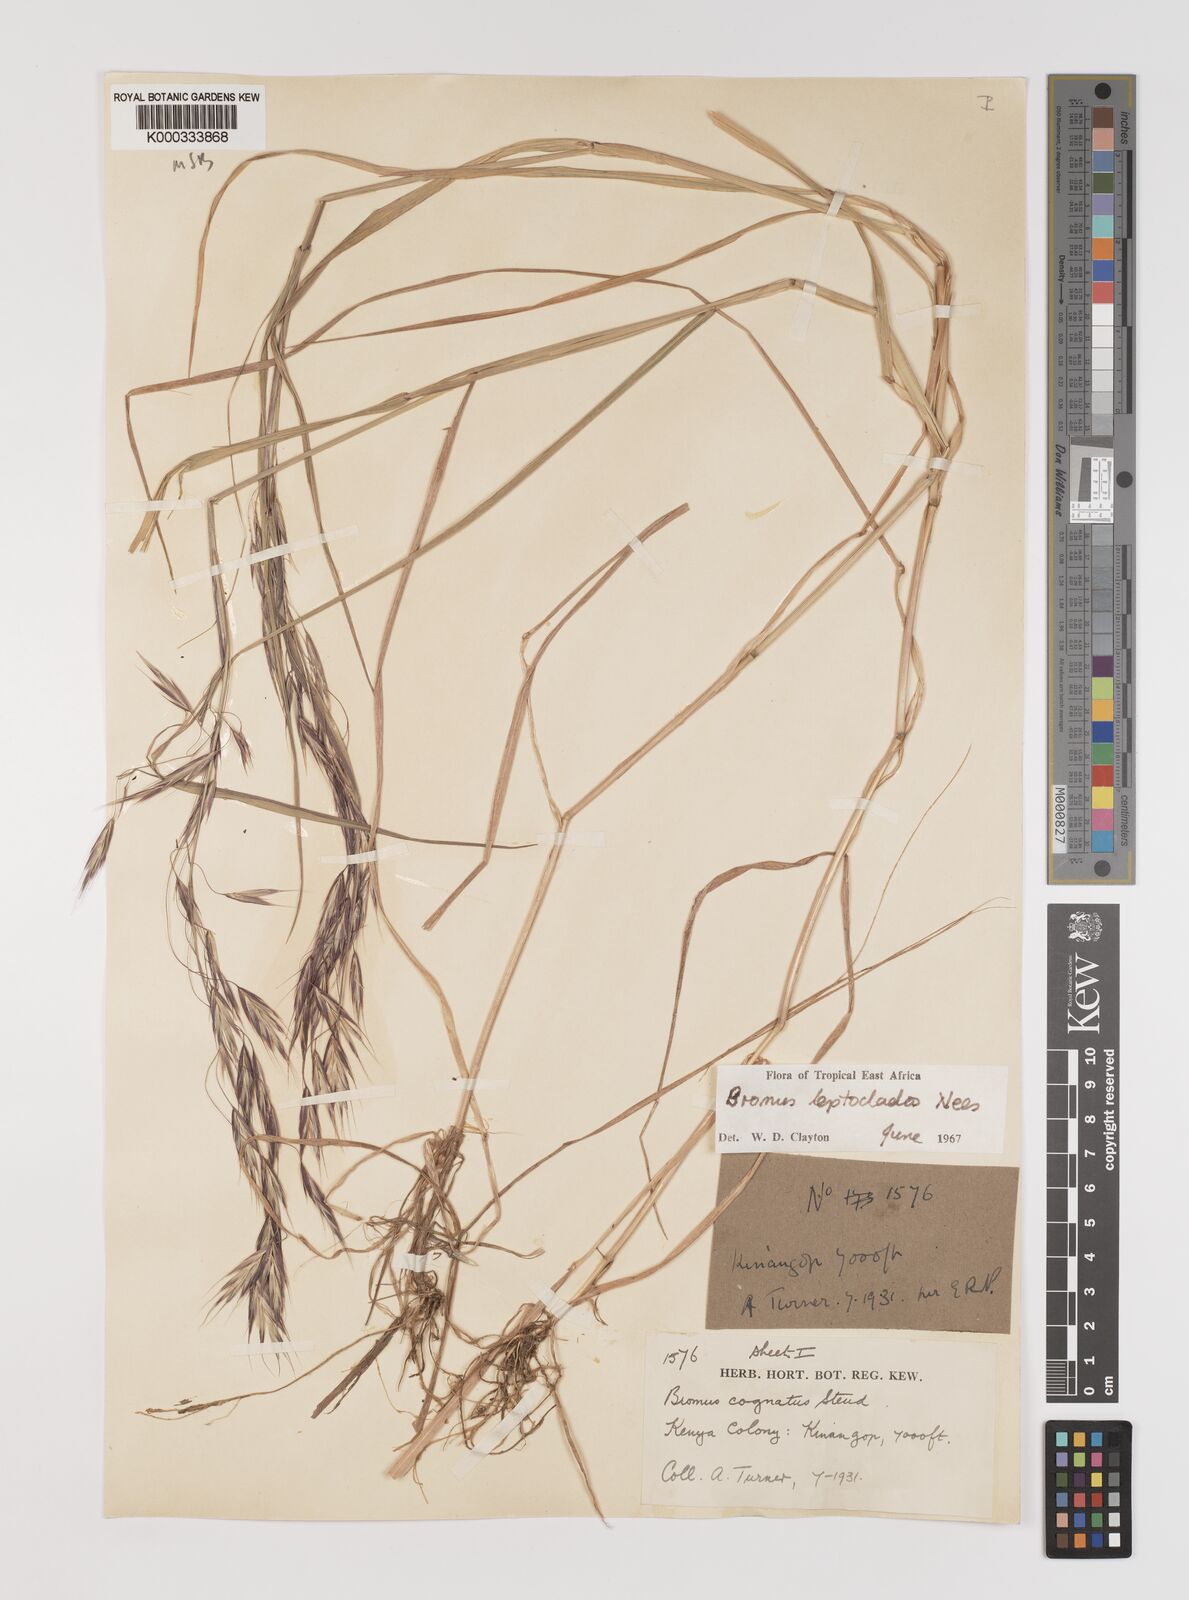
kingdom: Plantae
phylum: Tracheophyta
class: Liliopsida
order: Poales
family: Poaceae
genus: Bromus
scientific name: Bromus leptoclados
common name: Mountain bromegrass
